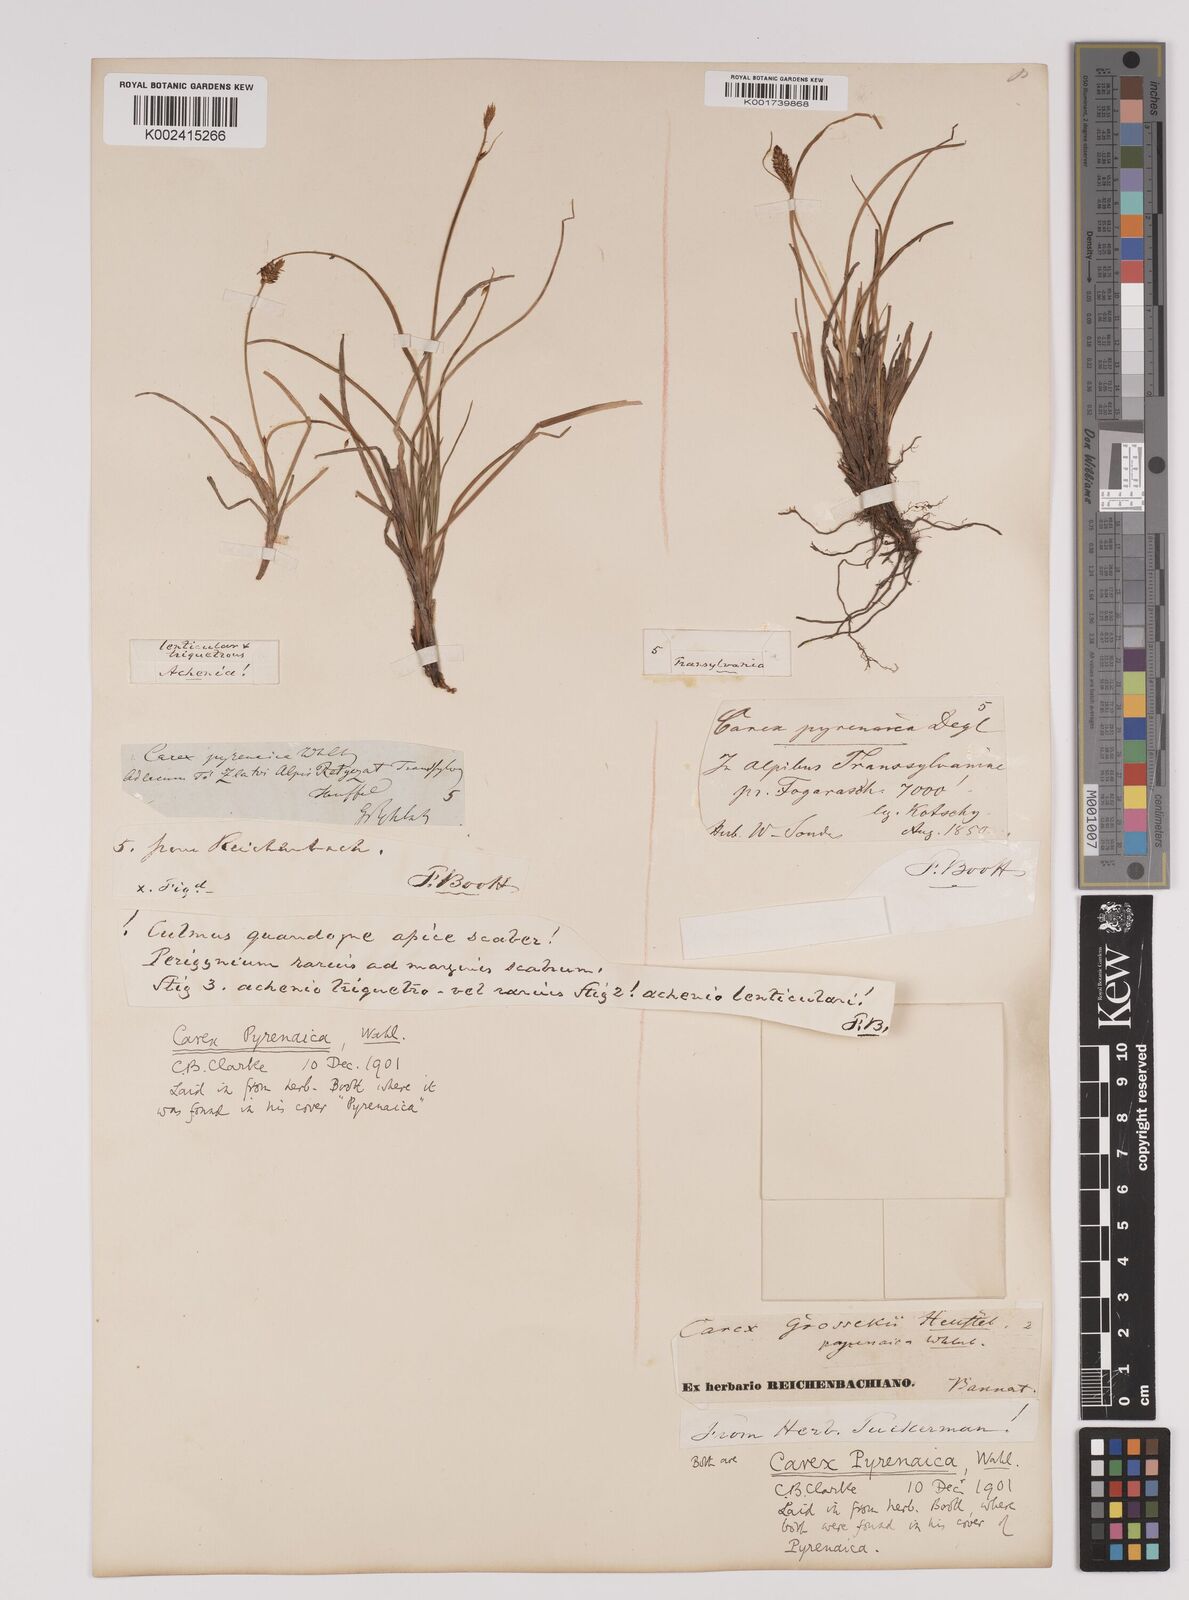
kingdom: Plantae
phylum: Tracheophyta
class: Liliopsida
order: Poales
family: Cyperaceae
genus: Carex
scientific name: Carex pyrenaica
